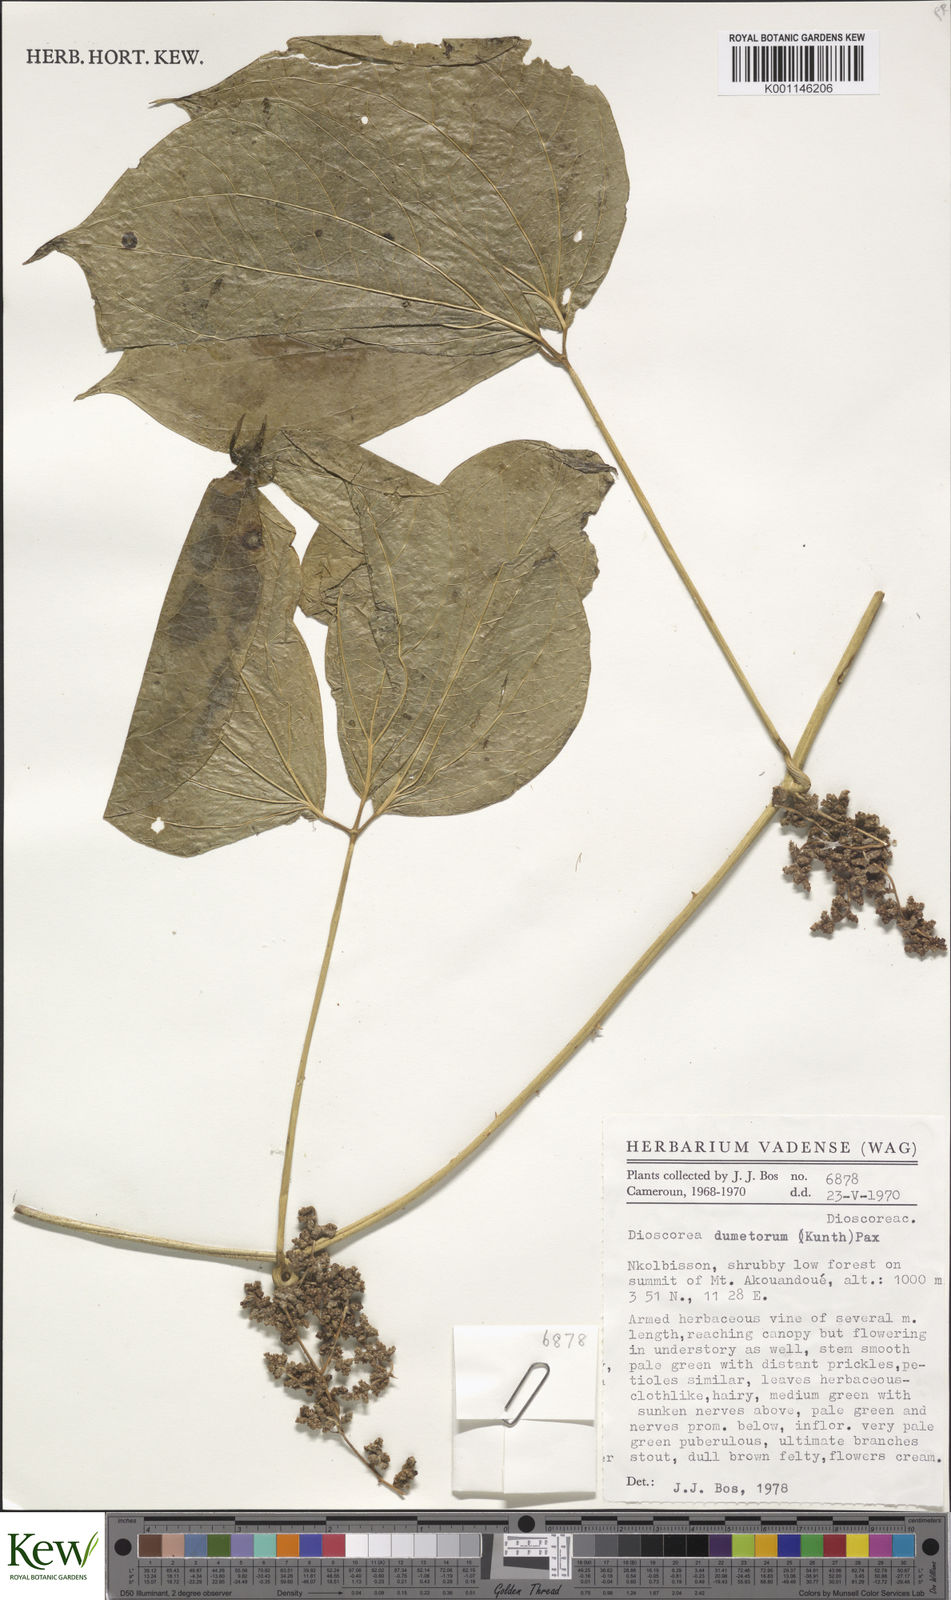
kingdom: Plantae
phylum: Tracheophyta
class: Liliopsida
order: Dioscoreales
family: Dioscoreaceae
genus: Dioscorea
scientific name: Dioscorea dumetorum
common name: African bitter yam
